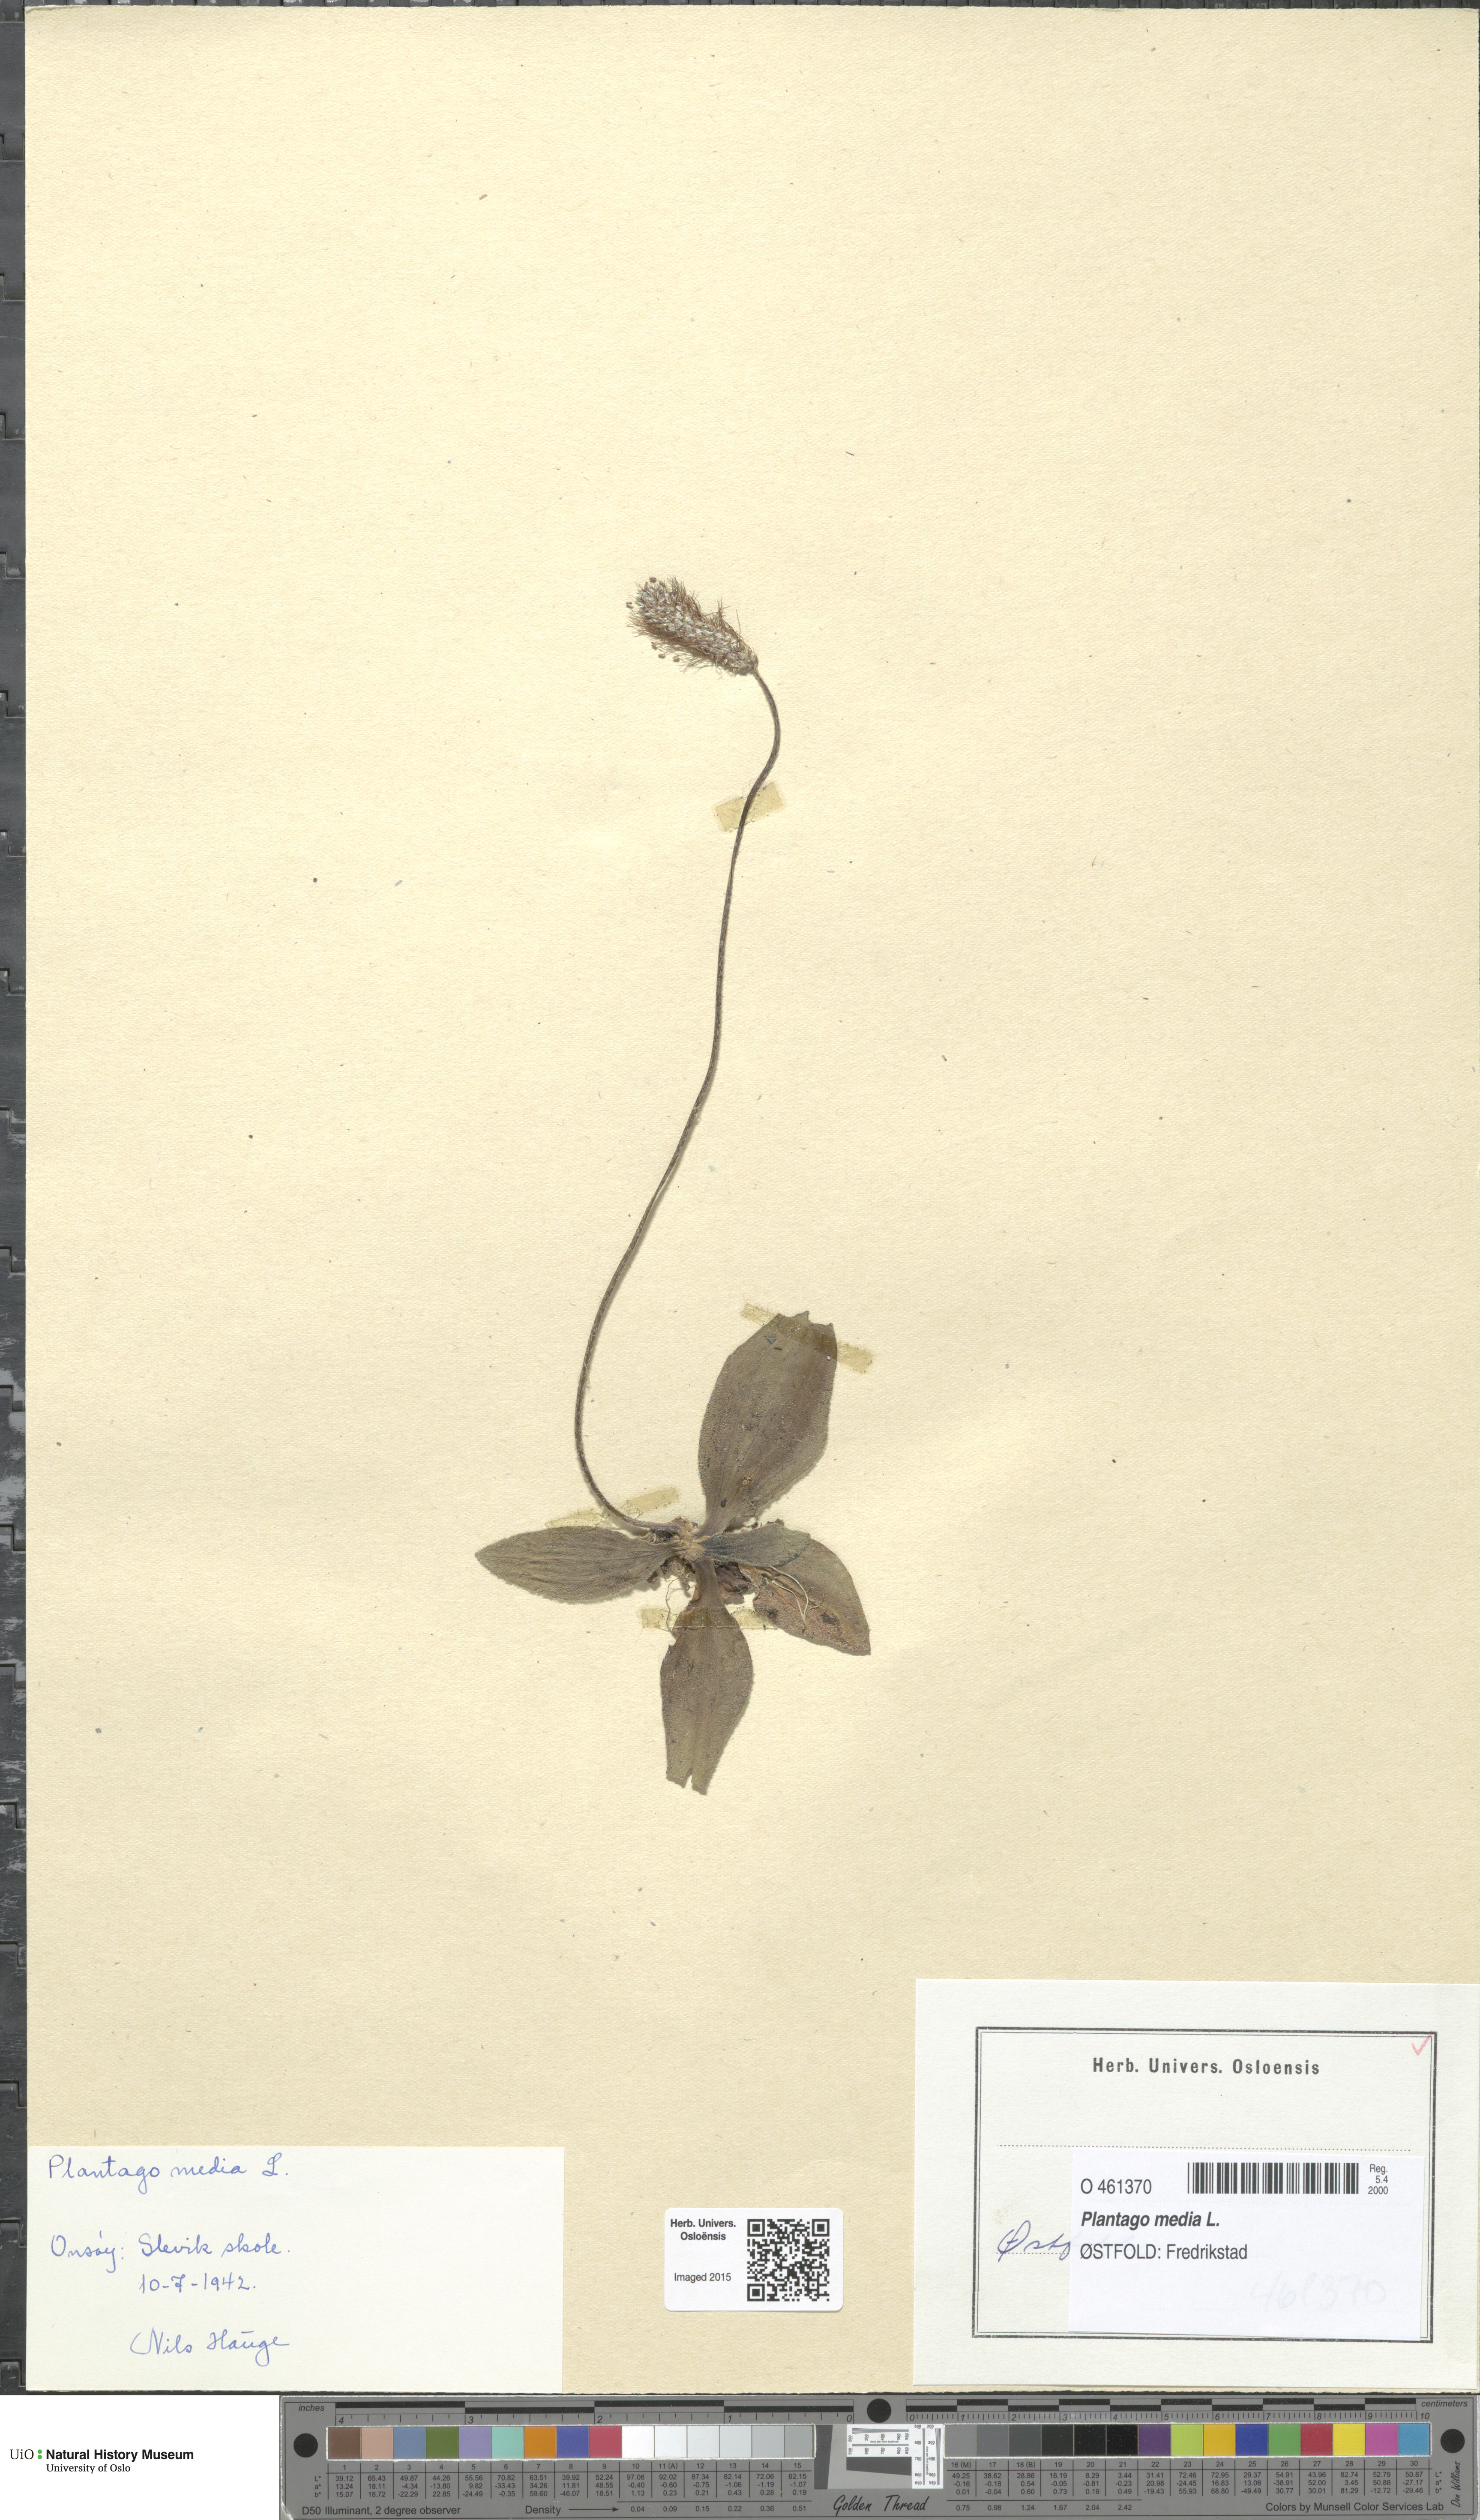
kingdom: Plantae
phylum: Tracheophyta
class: Magnoliopsida
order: Lamiales
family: Plantaginaceae
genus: Plantago
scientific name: Plantago media
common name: Hoary plantain
